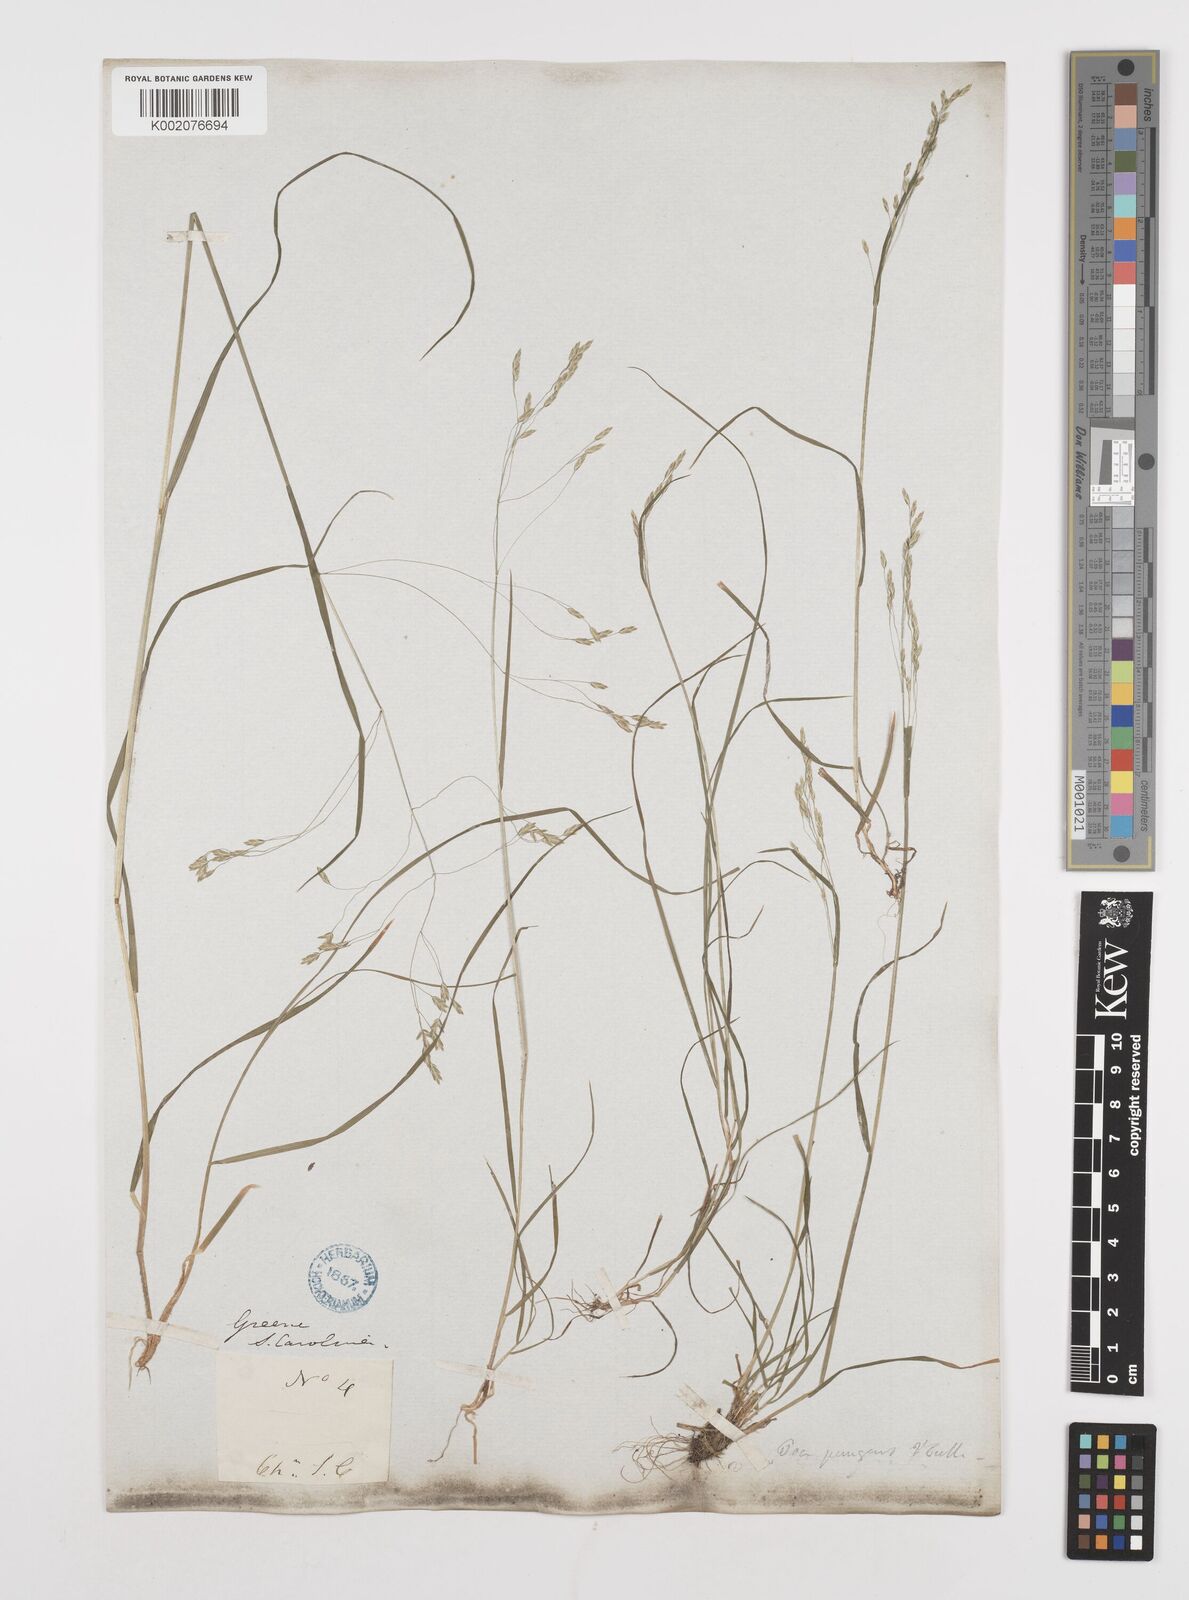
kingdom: Plantae
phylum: Tracheophyta
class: Liliopsida
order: Poales
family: Poaceae
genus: Poa
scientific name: Poa
